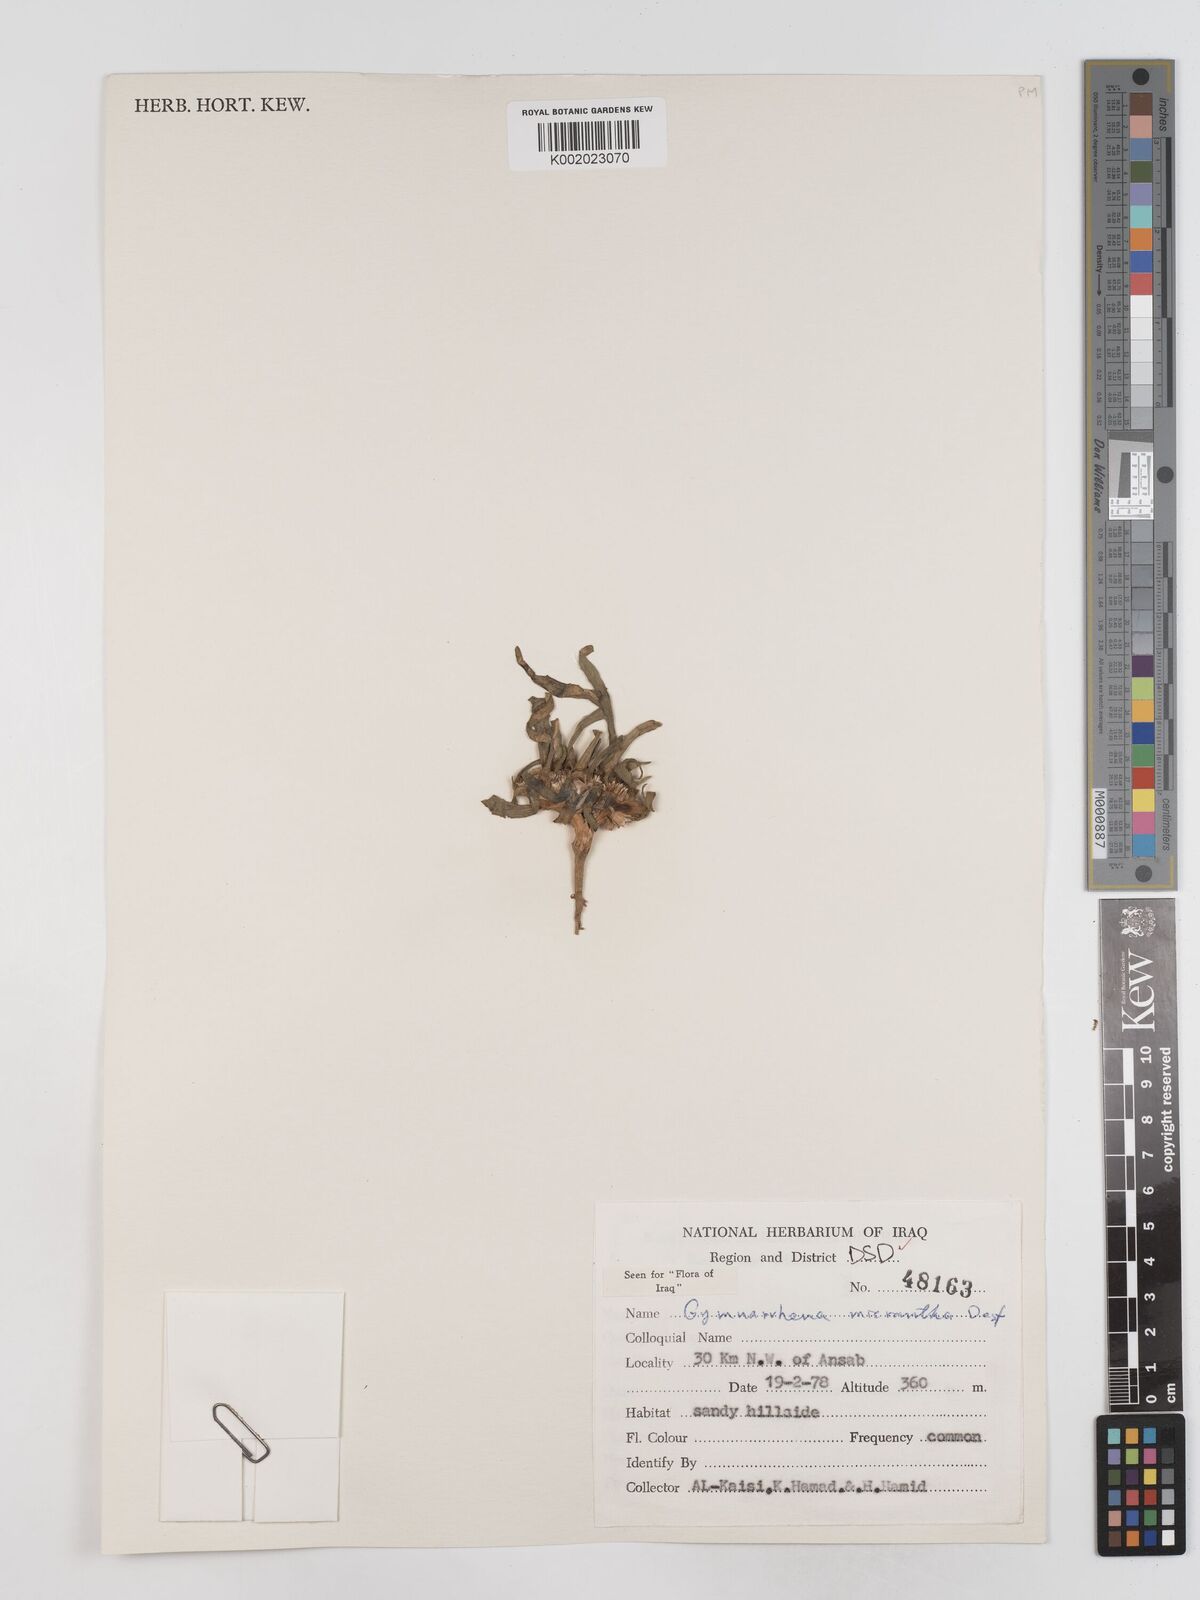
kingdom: Plantae
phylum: Tracheophyta
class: Magnoliopsida
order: Asterales
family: Asteraceae
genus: Gymnarrhena
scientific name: Gymnarrhena micrantha
